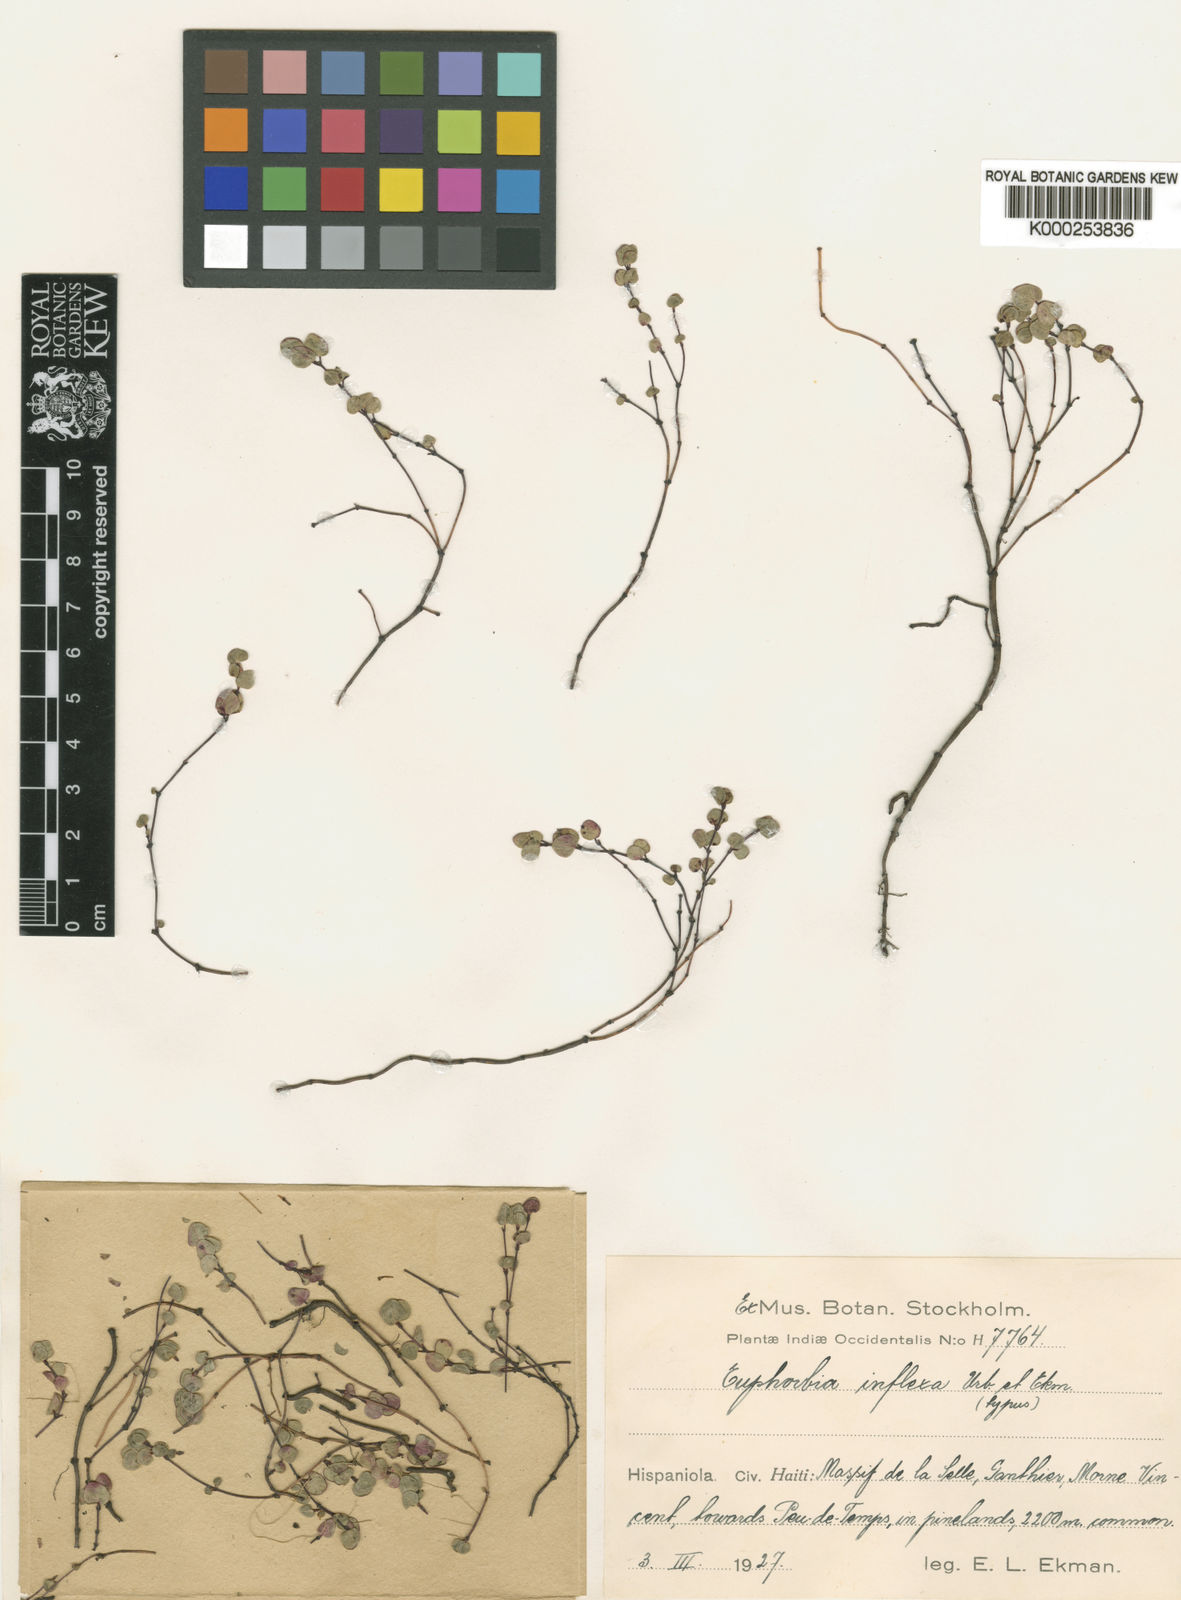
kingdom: Plantae
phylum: Tracheophyta
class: Magnoliopsida
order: Malpighiales
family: Euphorbiaceae
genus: Euphorbia
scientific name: Euphorbia serpens
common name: Matted sandmat
